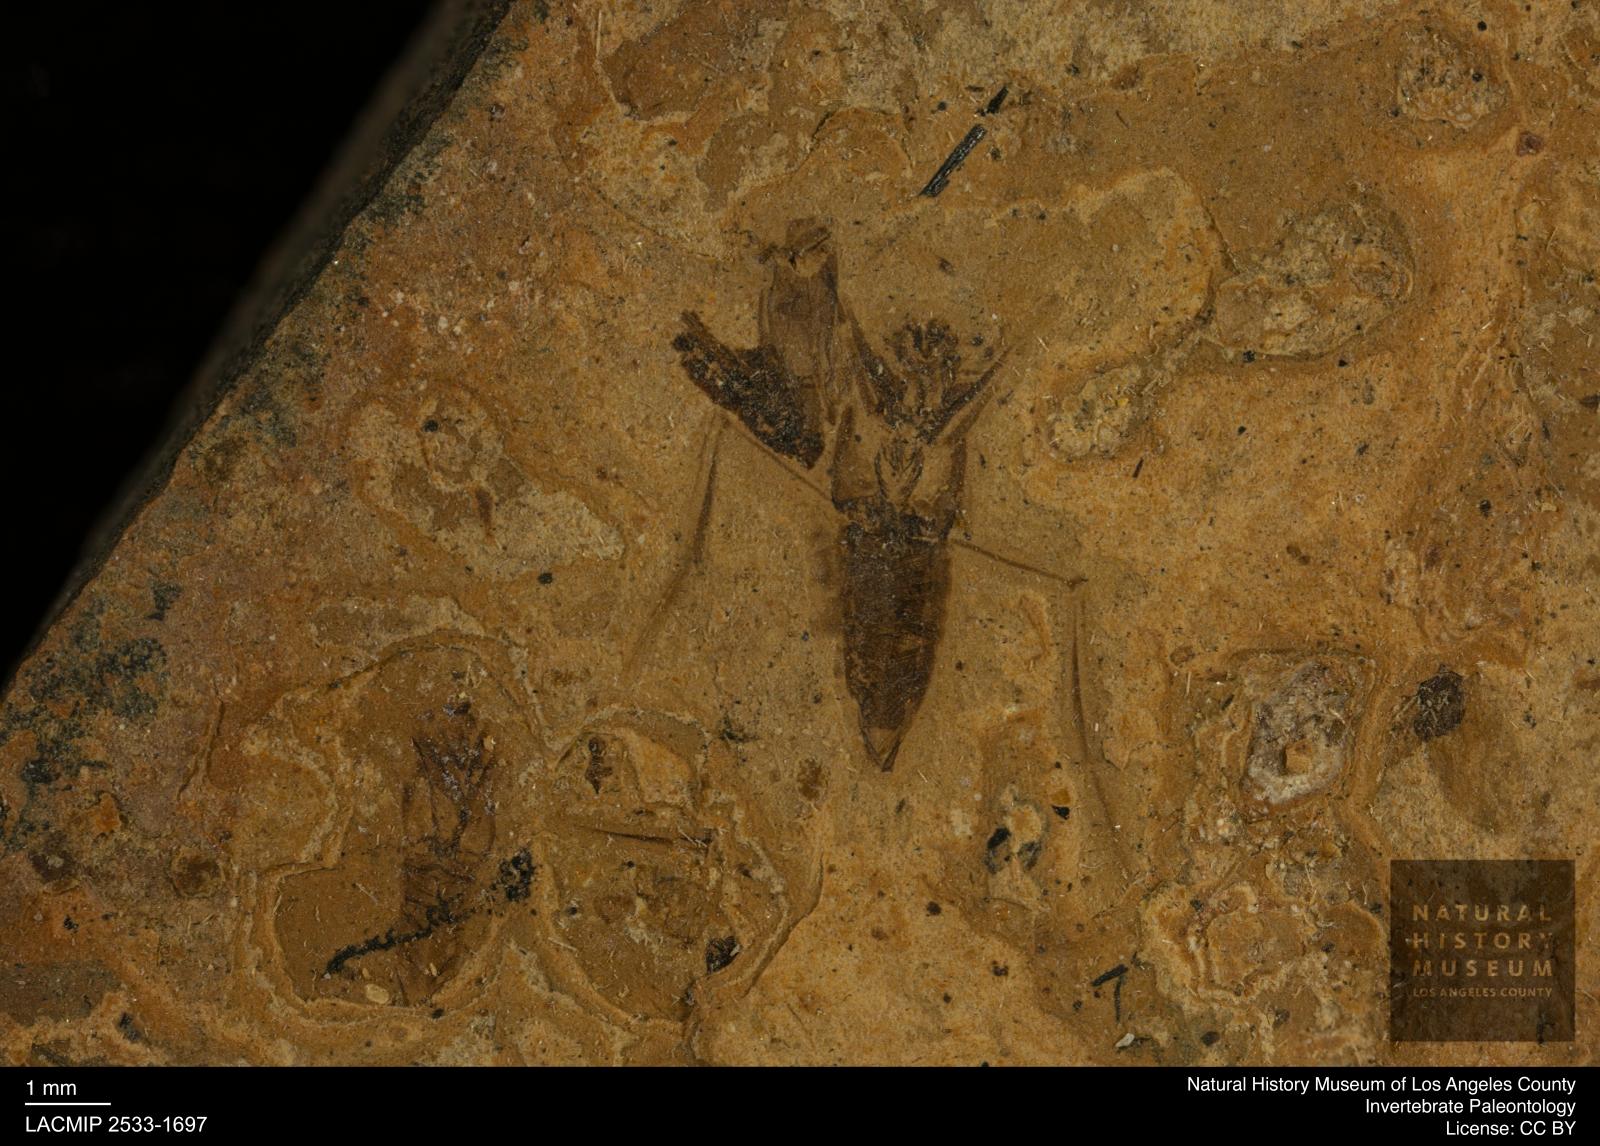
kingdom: Animalia
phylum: Arthropoda
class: Insecta
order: Hemiptera
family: Notonectidae
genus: Notonecta
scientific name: Notonecta
